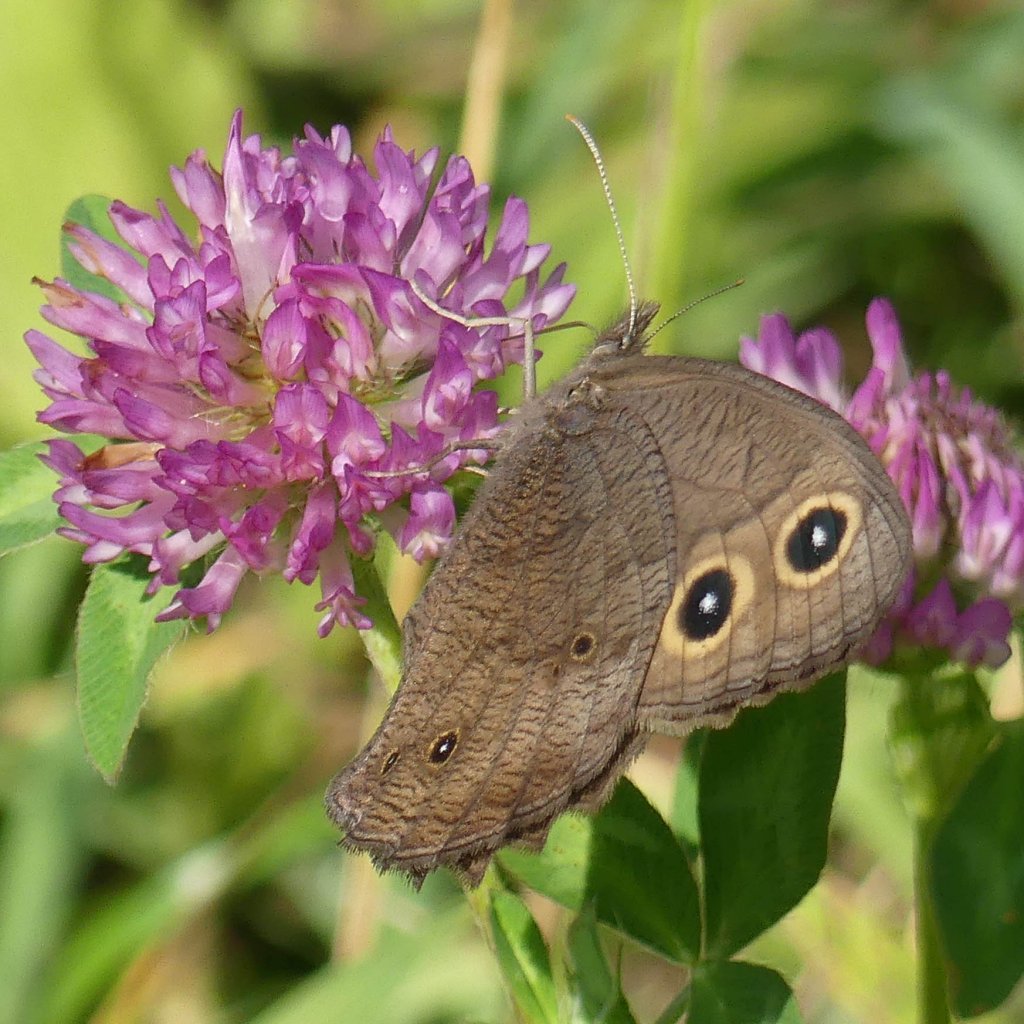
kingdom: Animalia
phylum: Arthropoda
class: Insecta
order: Lepidoptera
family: Nymphalidae
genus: Cercyonis
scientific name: Cercyonis pegala
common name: Common Wood-Nymph
